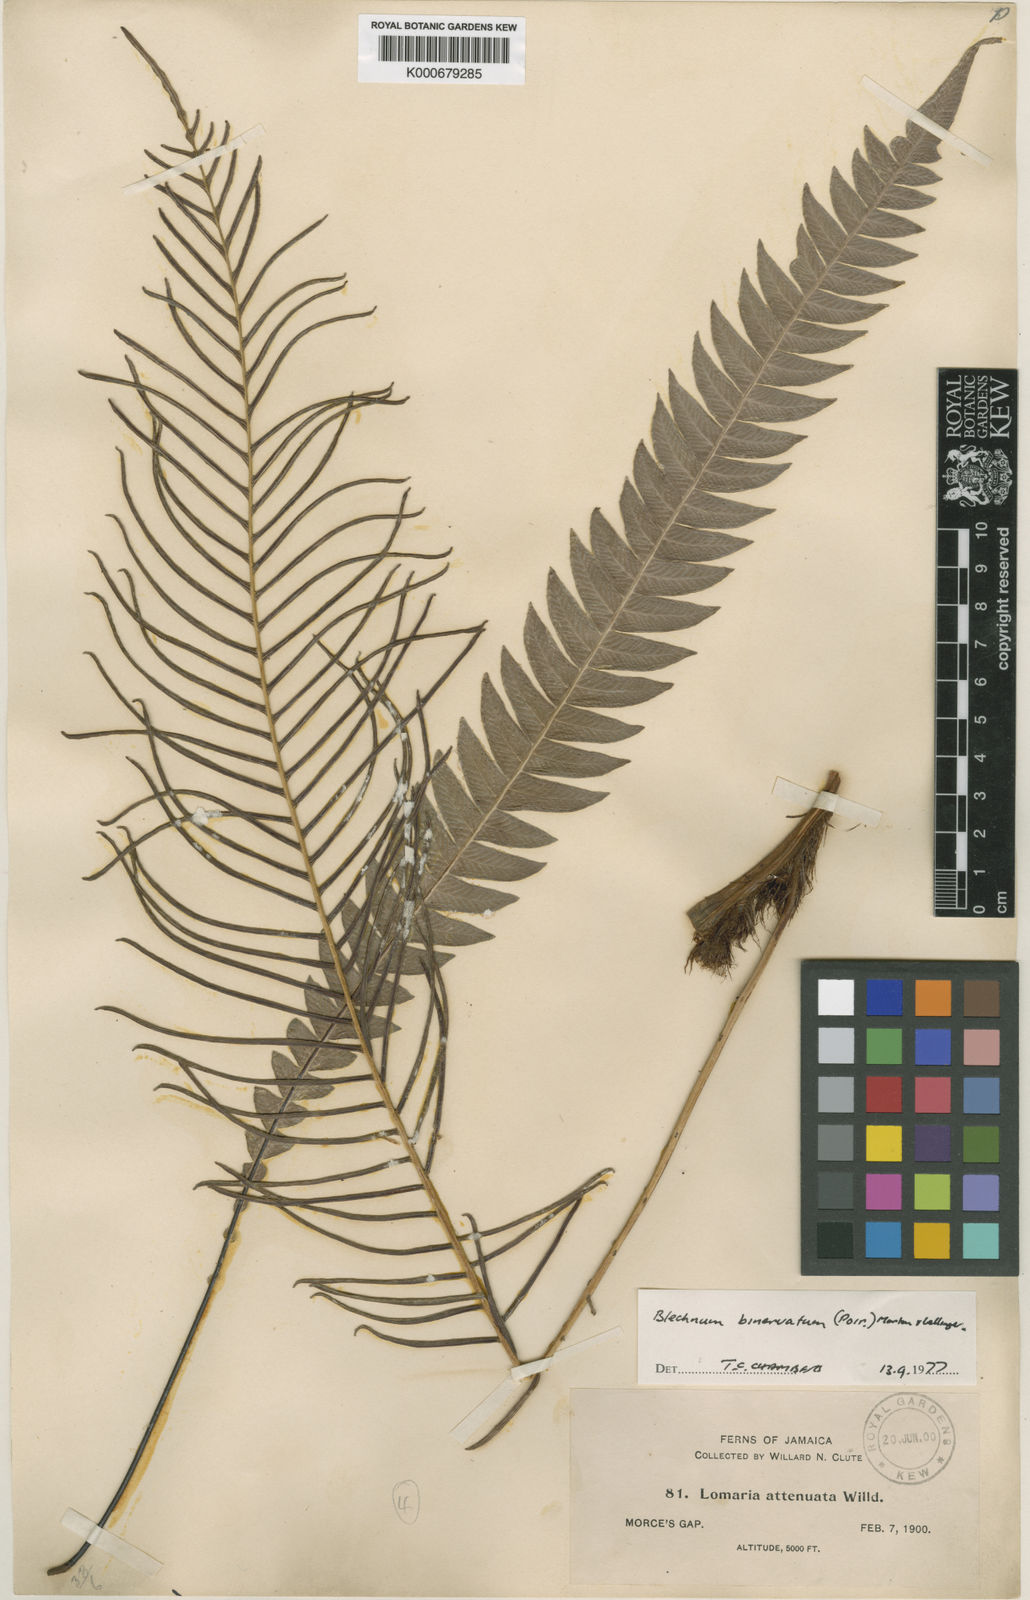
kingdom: Plantae
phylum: Tracheophyta
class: Liliopsida
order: Poales
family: Cyperaceae
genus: Eleocharis
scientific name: Eleocharis geniculata
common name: Canada spikesedge
